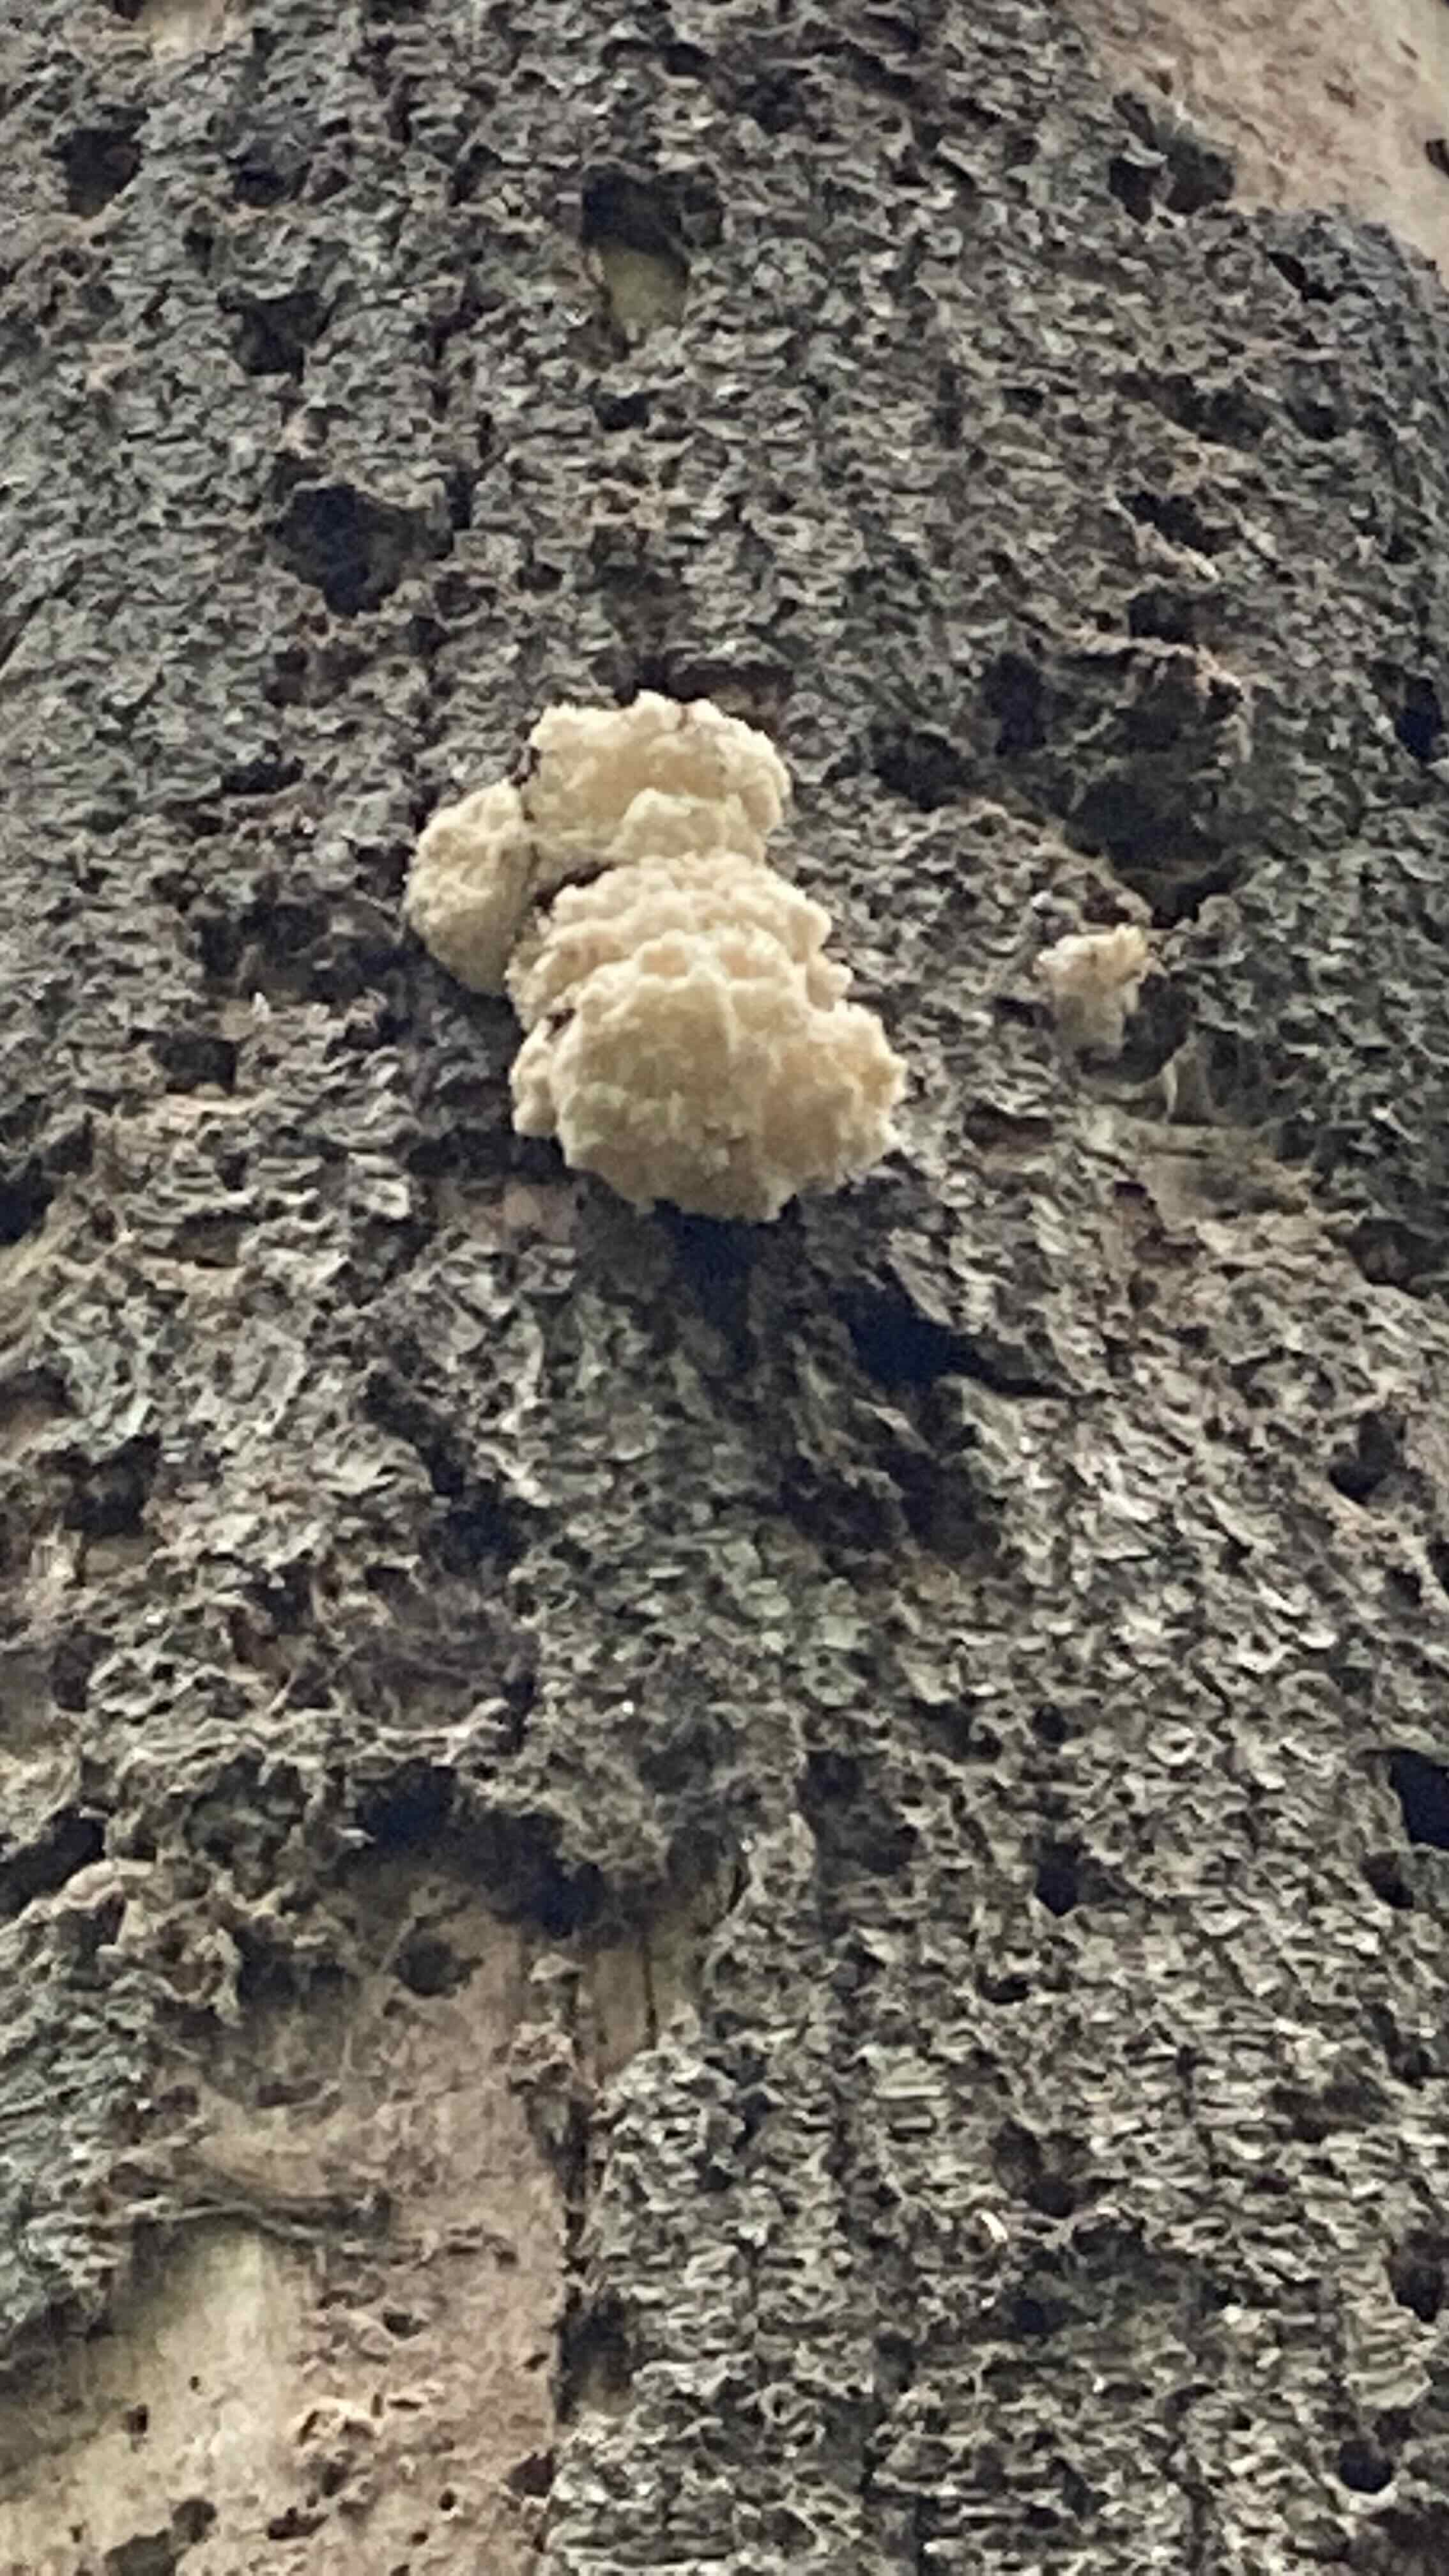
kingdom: Fungi
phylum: Basidiomycota
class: Agaricomycetes
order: Russulales
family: Hericiaceae
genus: Hericium
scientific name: Hericium coralloides
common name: koralpigsvamp
